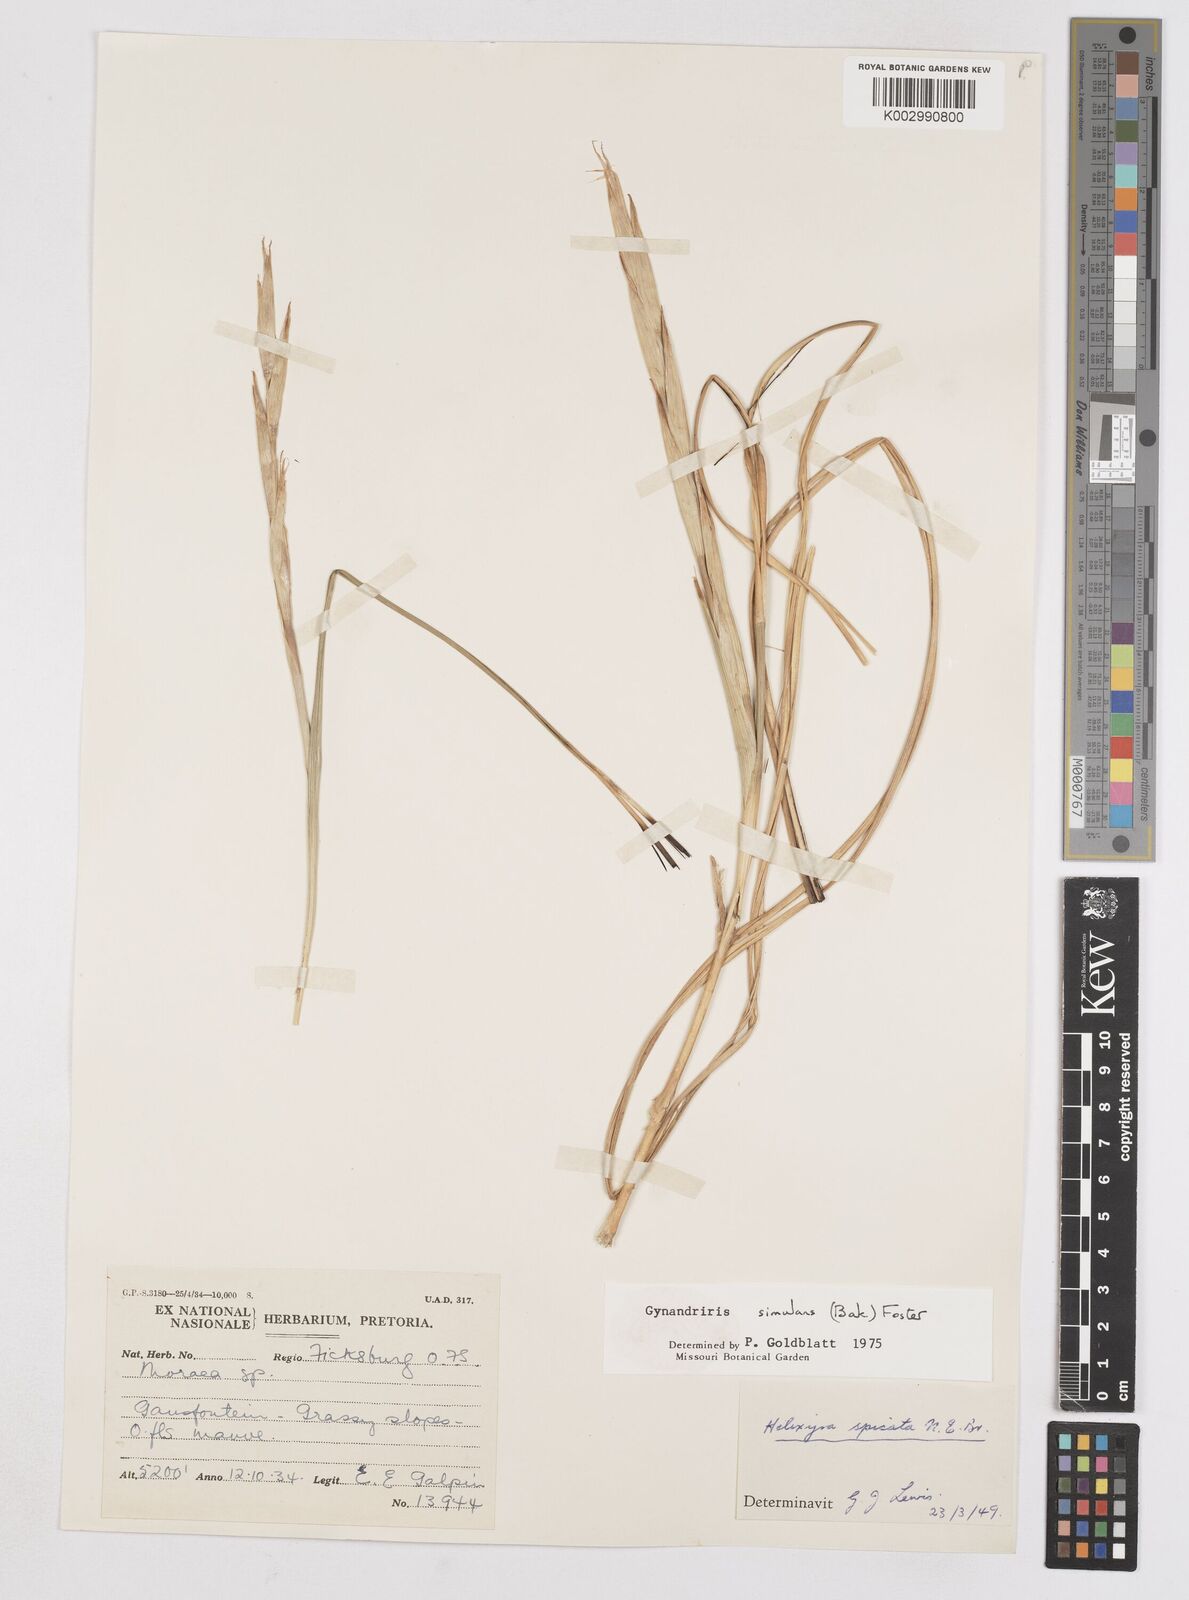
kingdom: Plantae
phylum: Tracheophyta
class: Liliopsida
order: Asparagales
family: Iridaceae
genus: Moraea
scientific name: Moraea simulans
